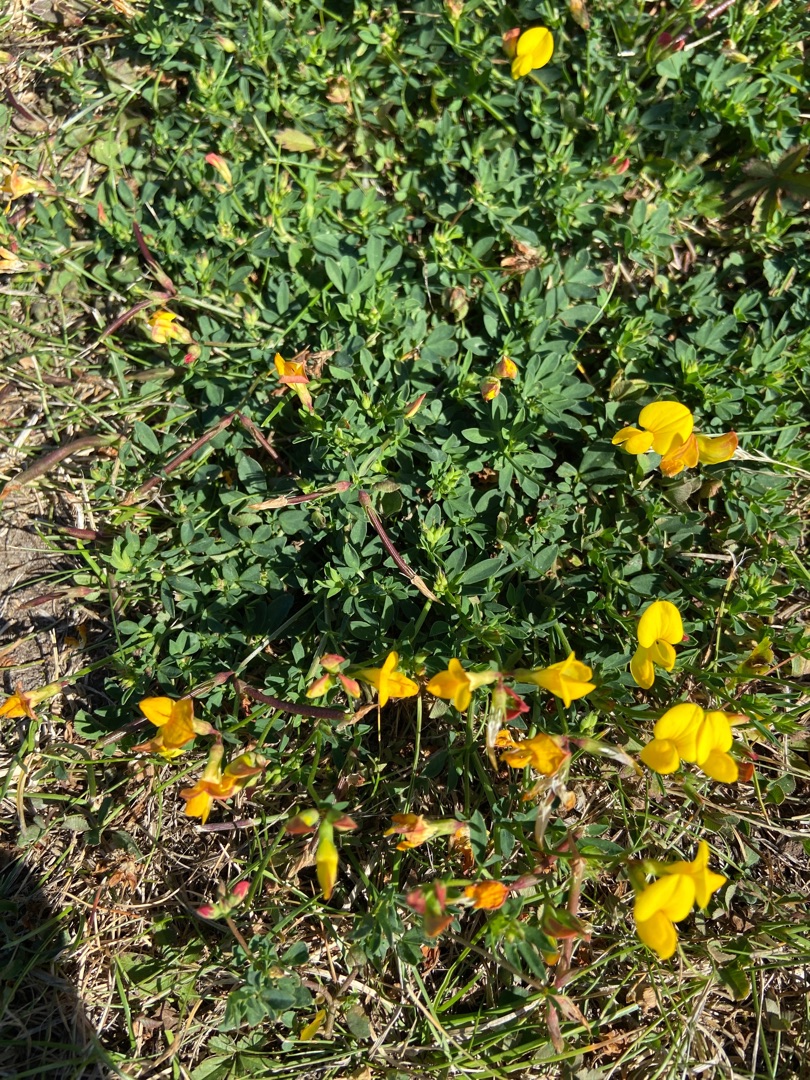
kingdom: Plantae
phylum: Tracheophyta
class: Magnoliopsida
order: Fabales
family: Fabaceae
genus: Lotus
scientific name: Lotus corniculatus
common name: Almindelig kællingetand
